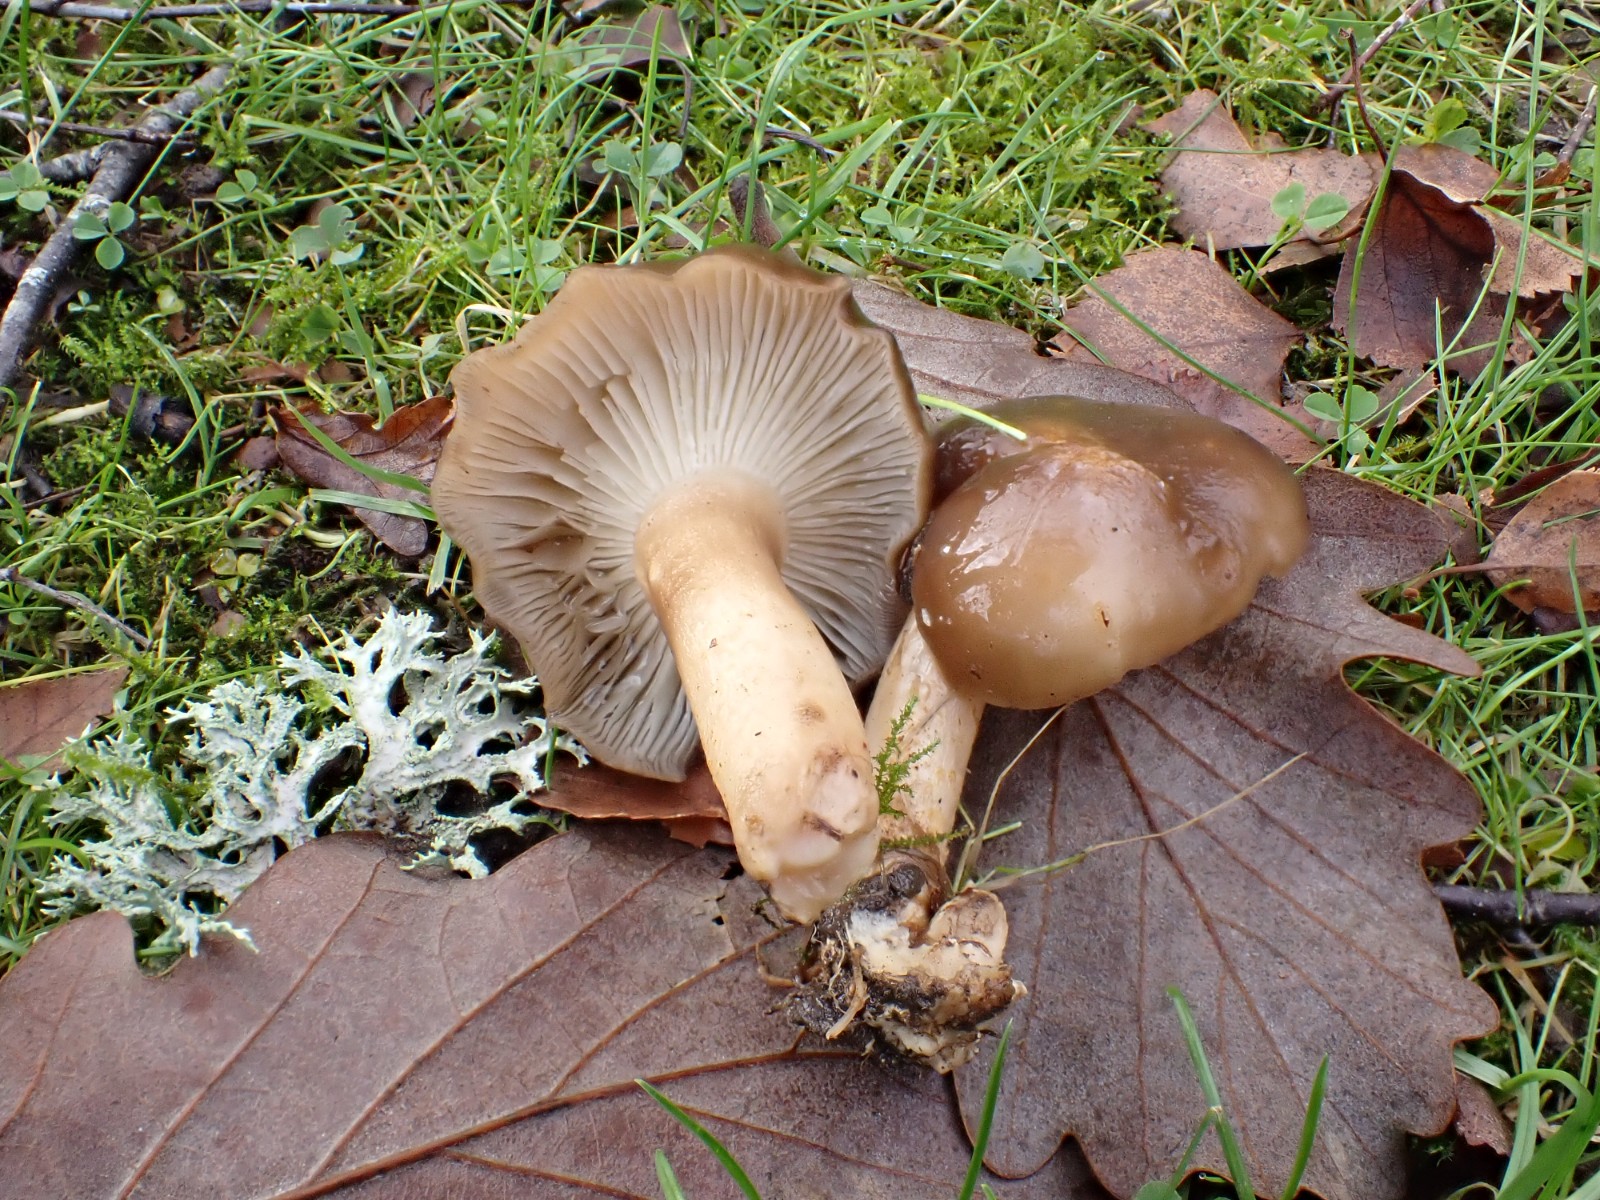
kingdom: Fungi
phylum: Basidiomycota
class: Agaricomycetes
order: Agaricales
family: Lyophyllaceae
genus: Lyophyllum
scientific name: Lyophyllum decastes
